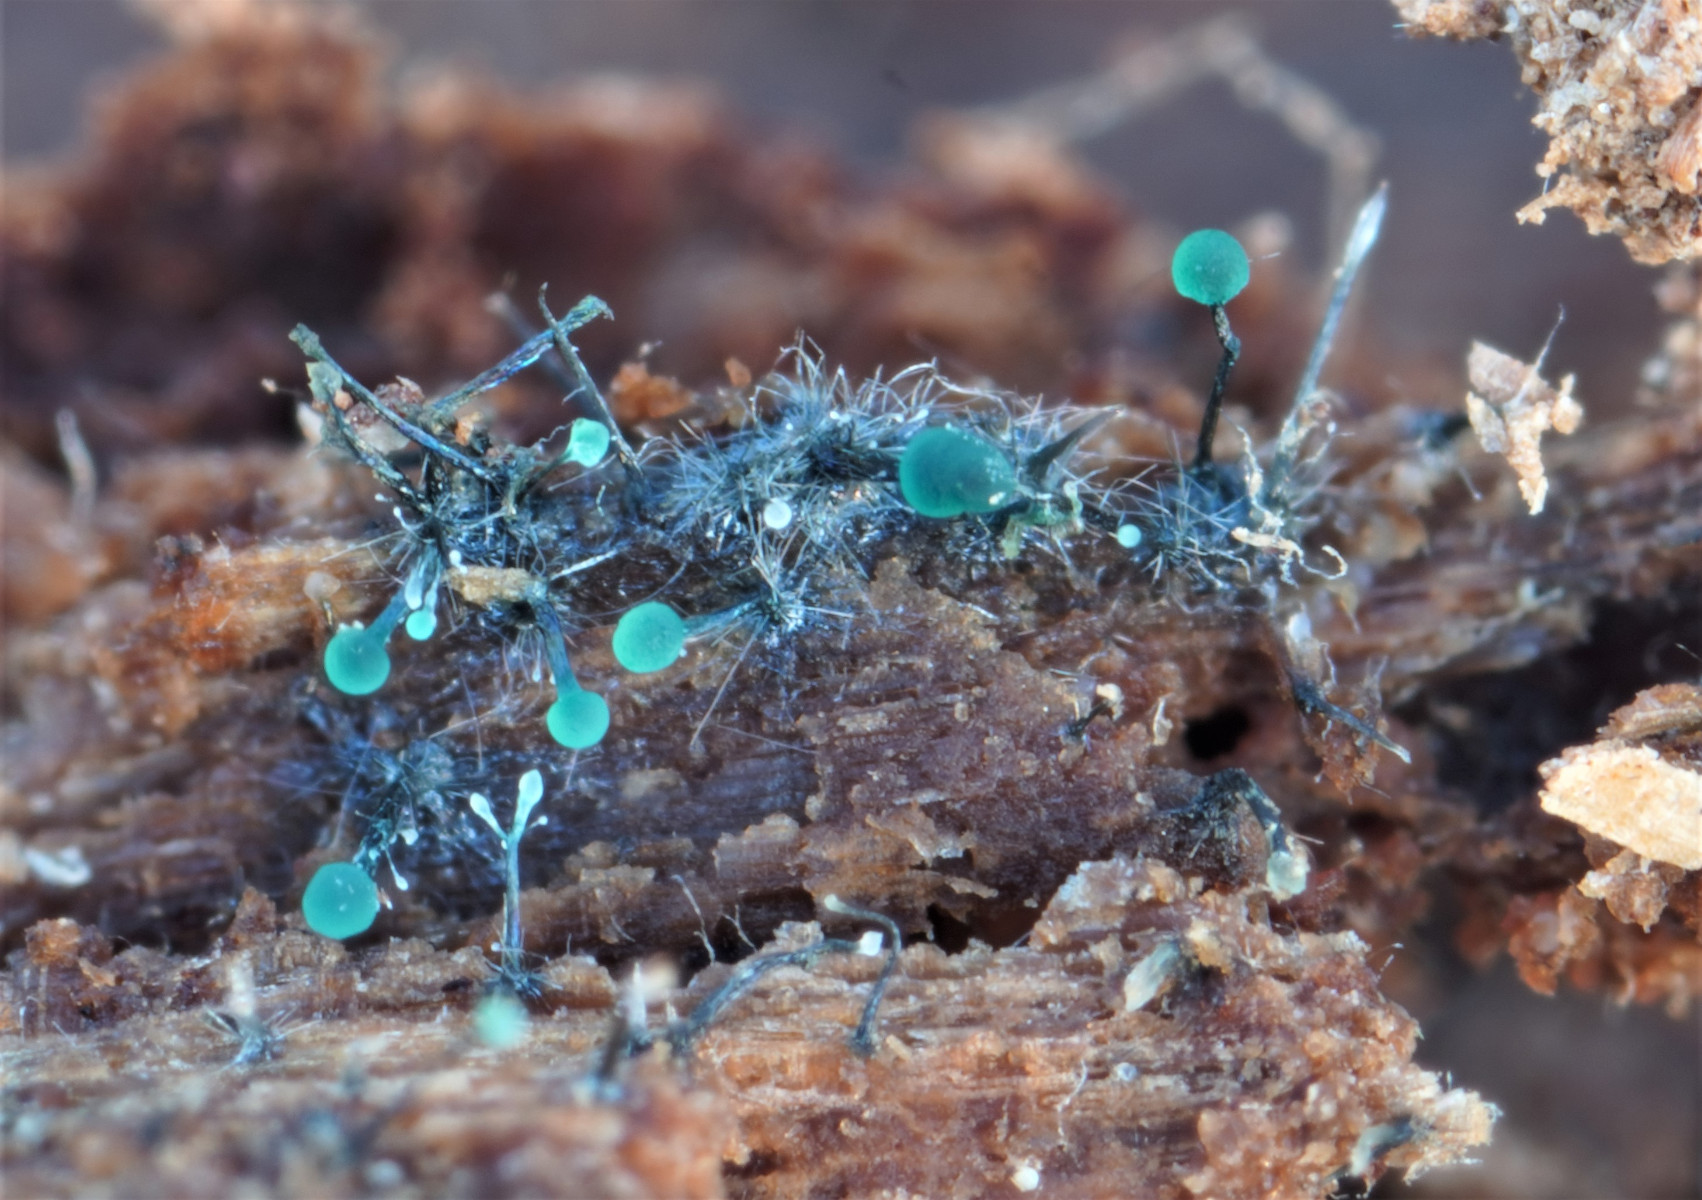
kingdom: Fungi
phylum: Ascomycota
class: Leotiomycetes
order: Leotiales
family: Tympanidaceae
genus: Dendrostilbella
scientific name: Dendrostilbella smaragdina
